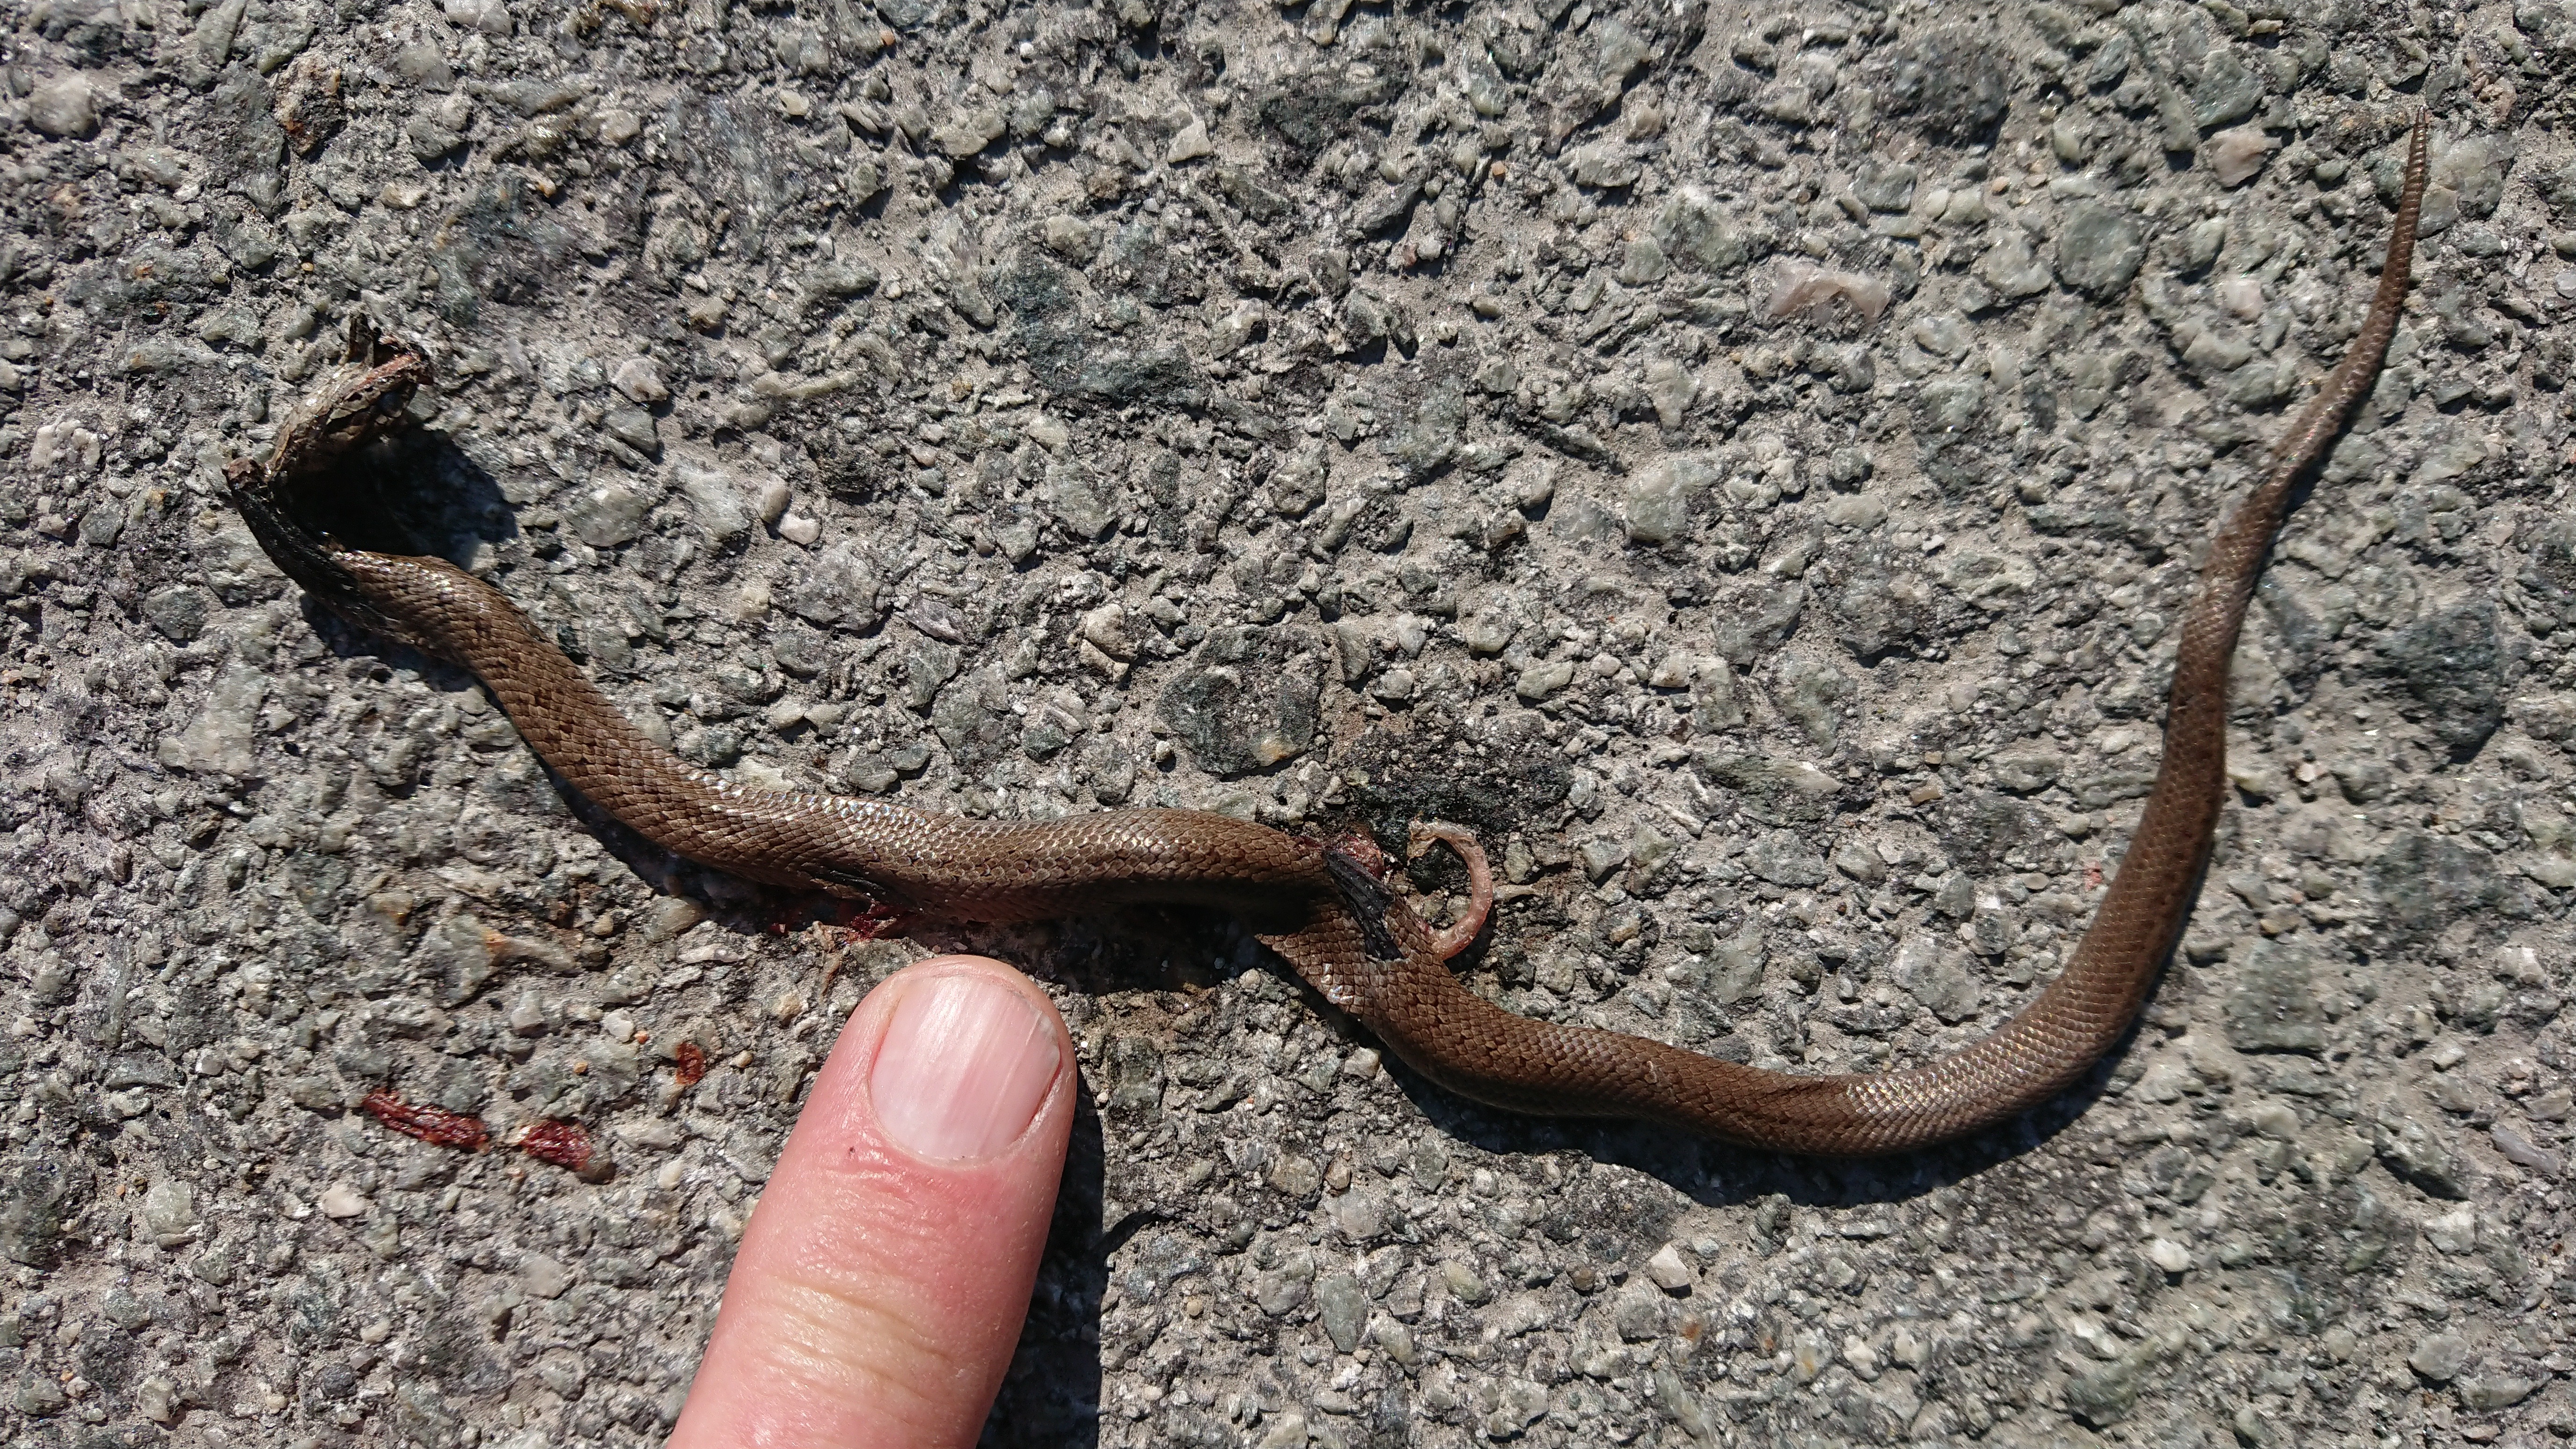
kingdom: Animalia
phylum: Chordata
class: Squamata
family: Colubridae
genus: Coronella
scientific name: Coronella austriaca
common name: Smooth snake
